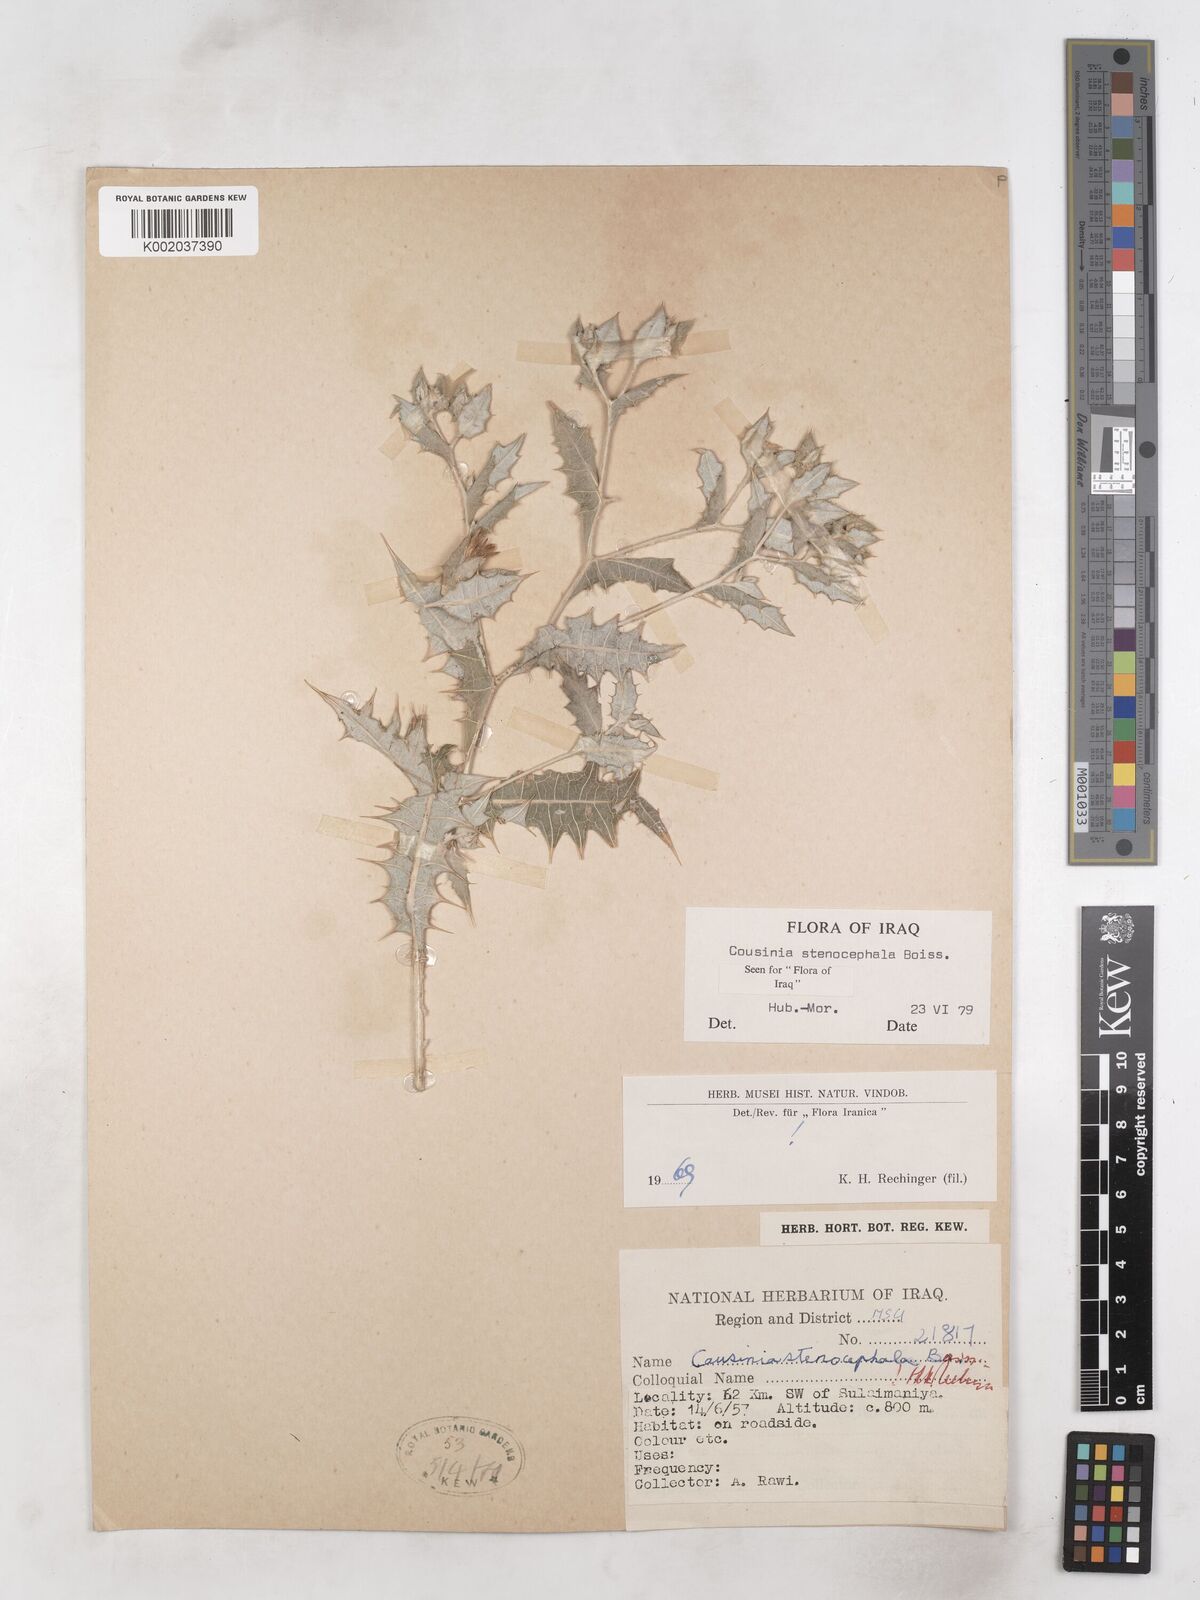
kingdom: Plantae
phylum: Tracheophyta
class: Magnoliopsida
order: Asterales
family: Asteraceae
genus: Cousinia
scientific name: Cousinia stenocephala
